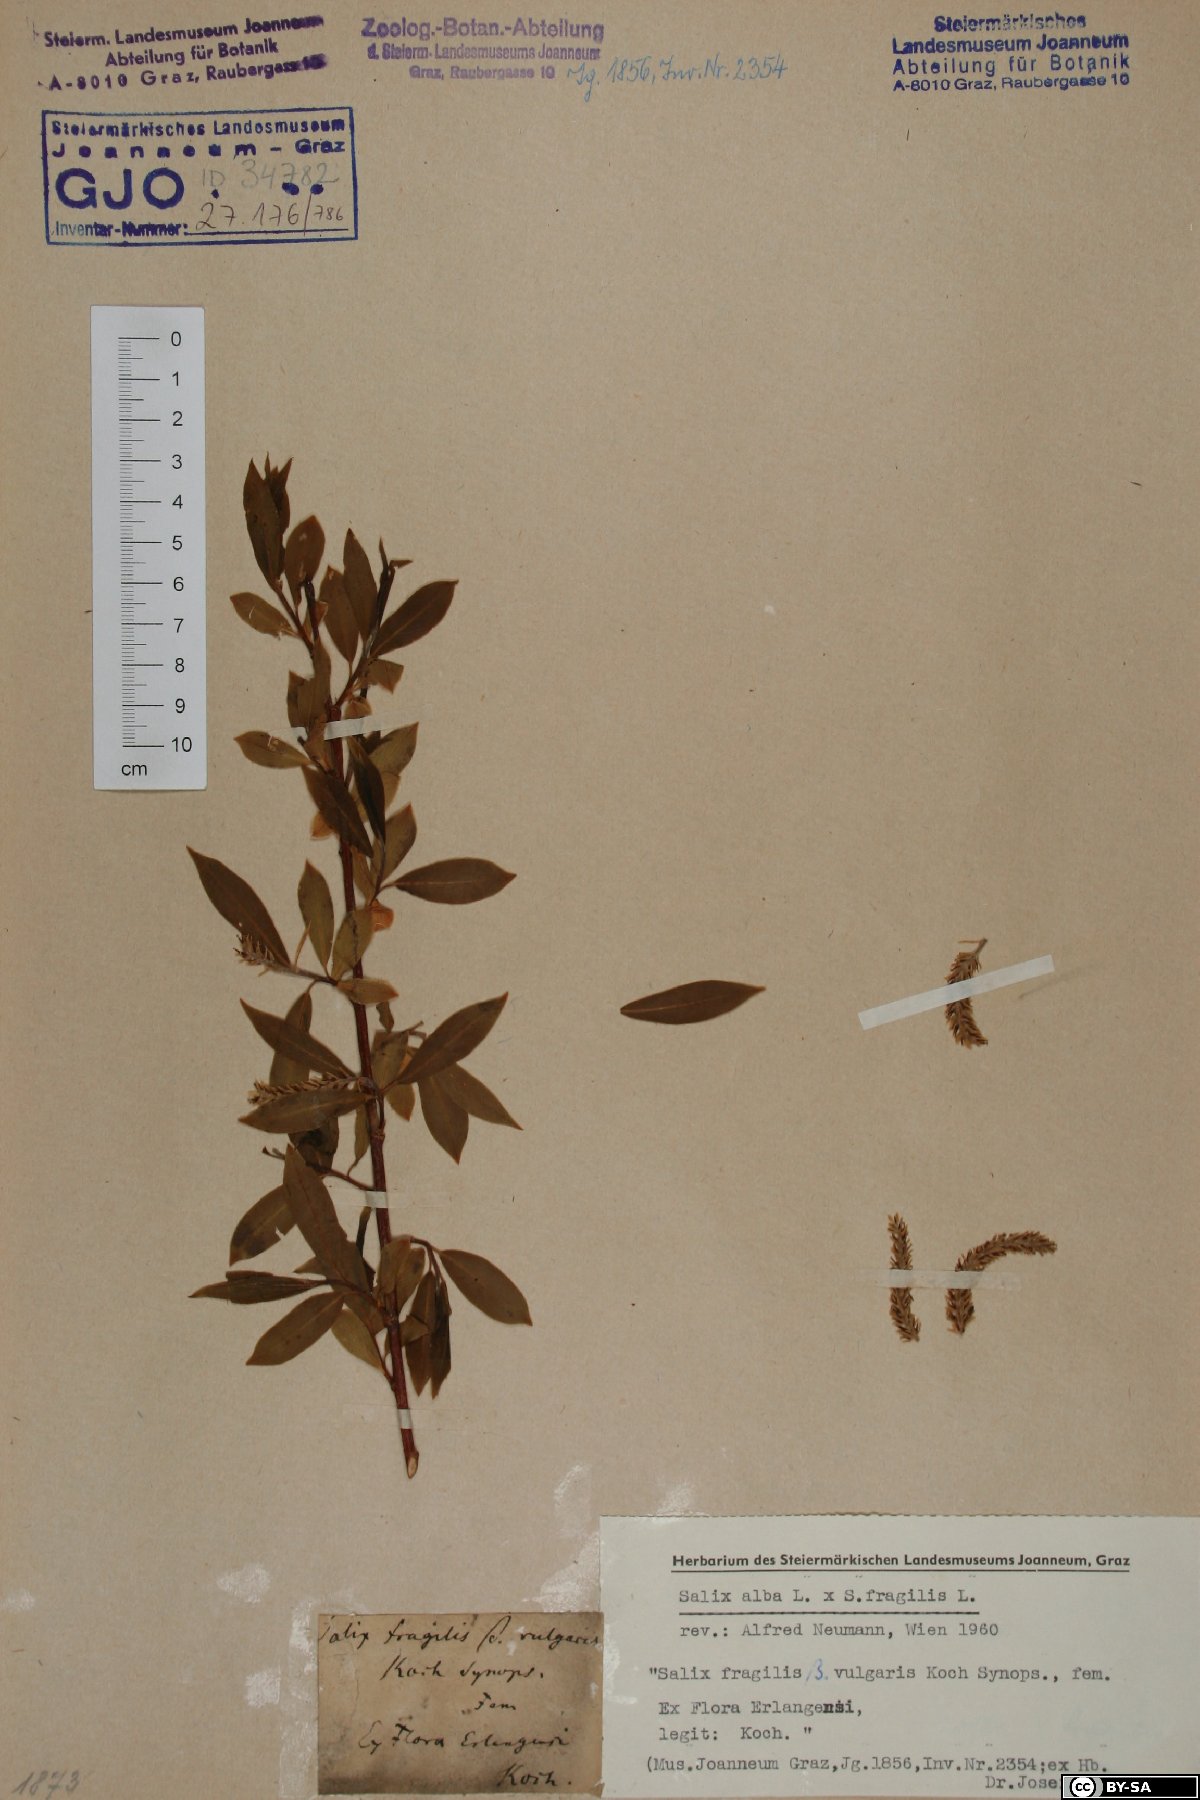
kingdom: Plantae
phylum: Tracheophyta
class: Magnoliopsida
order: Malpighiales
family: Salicaceae
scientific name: Salicaceae
